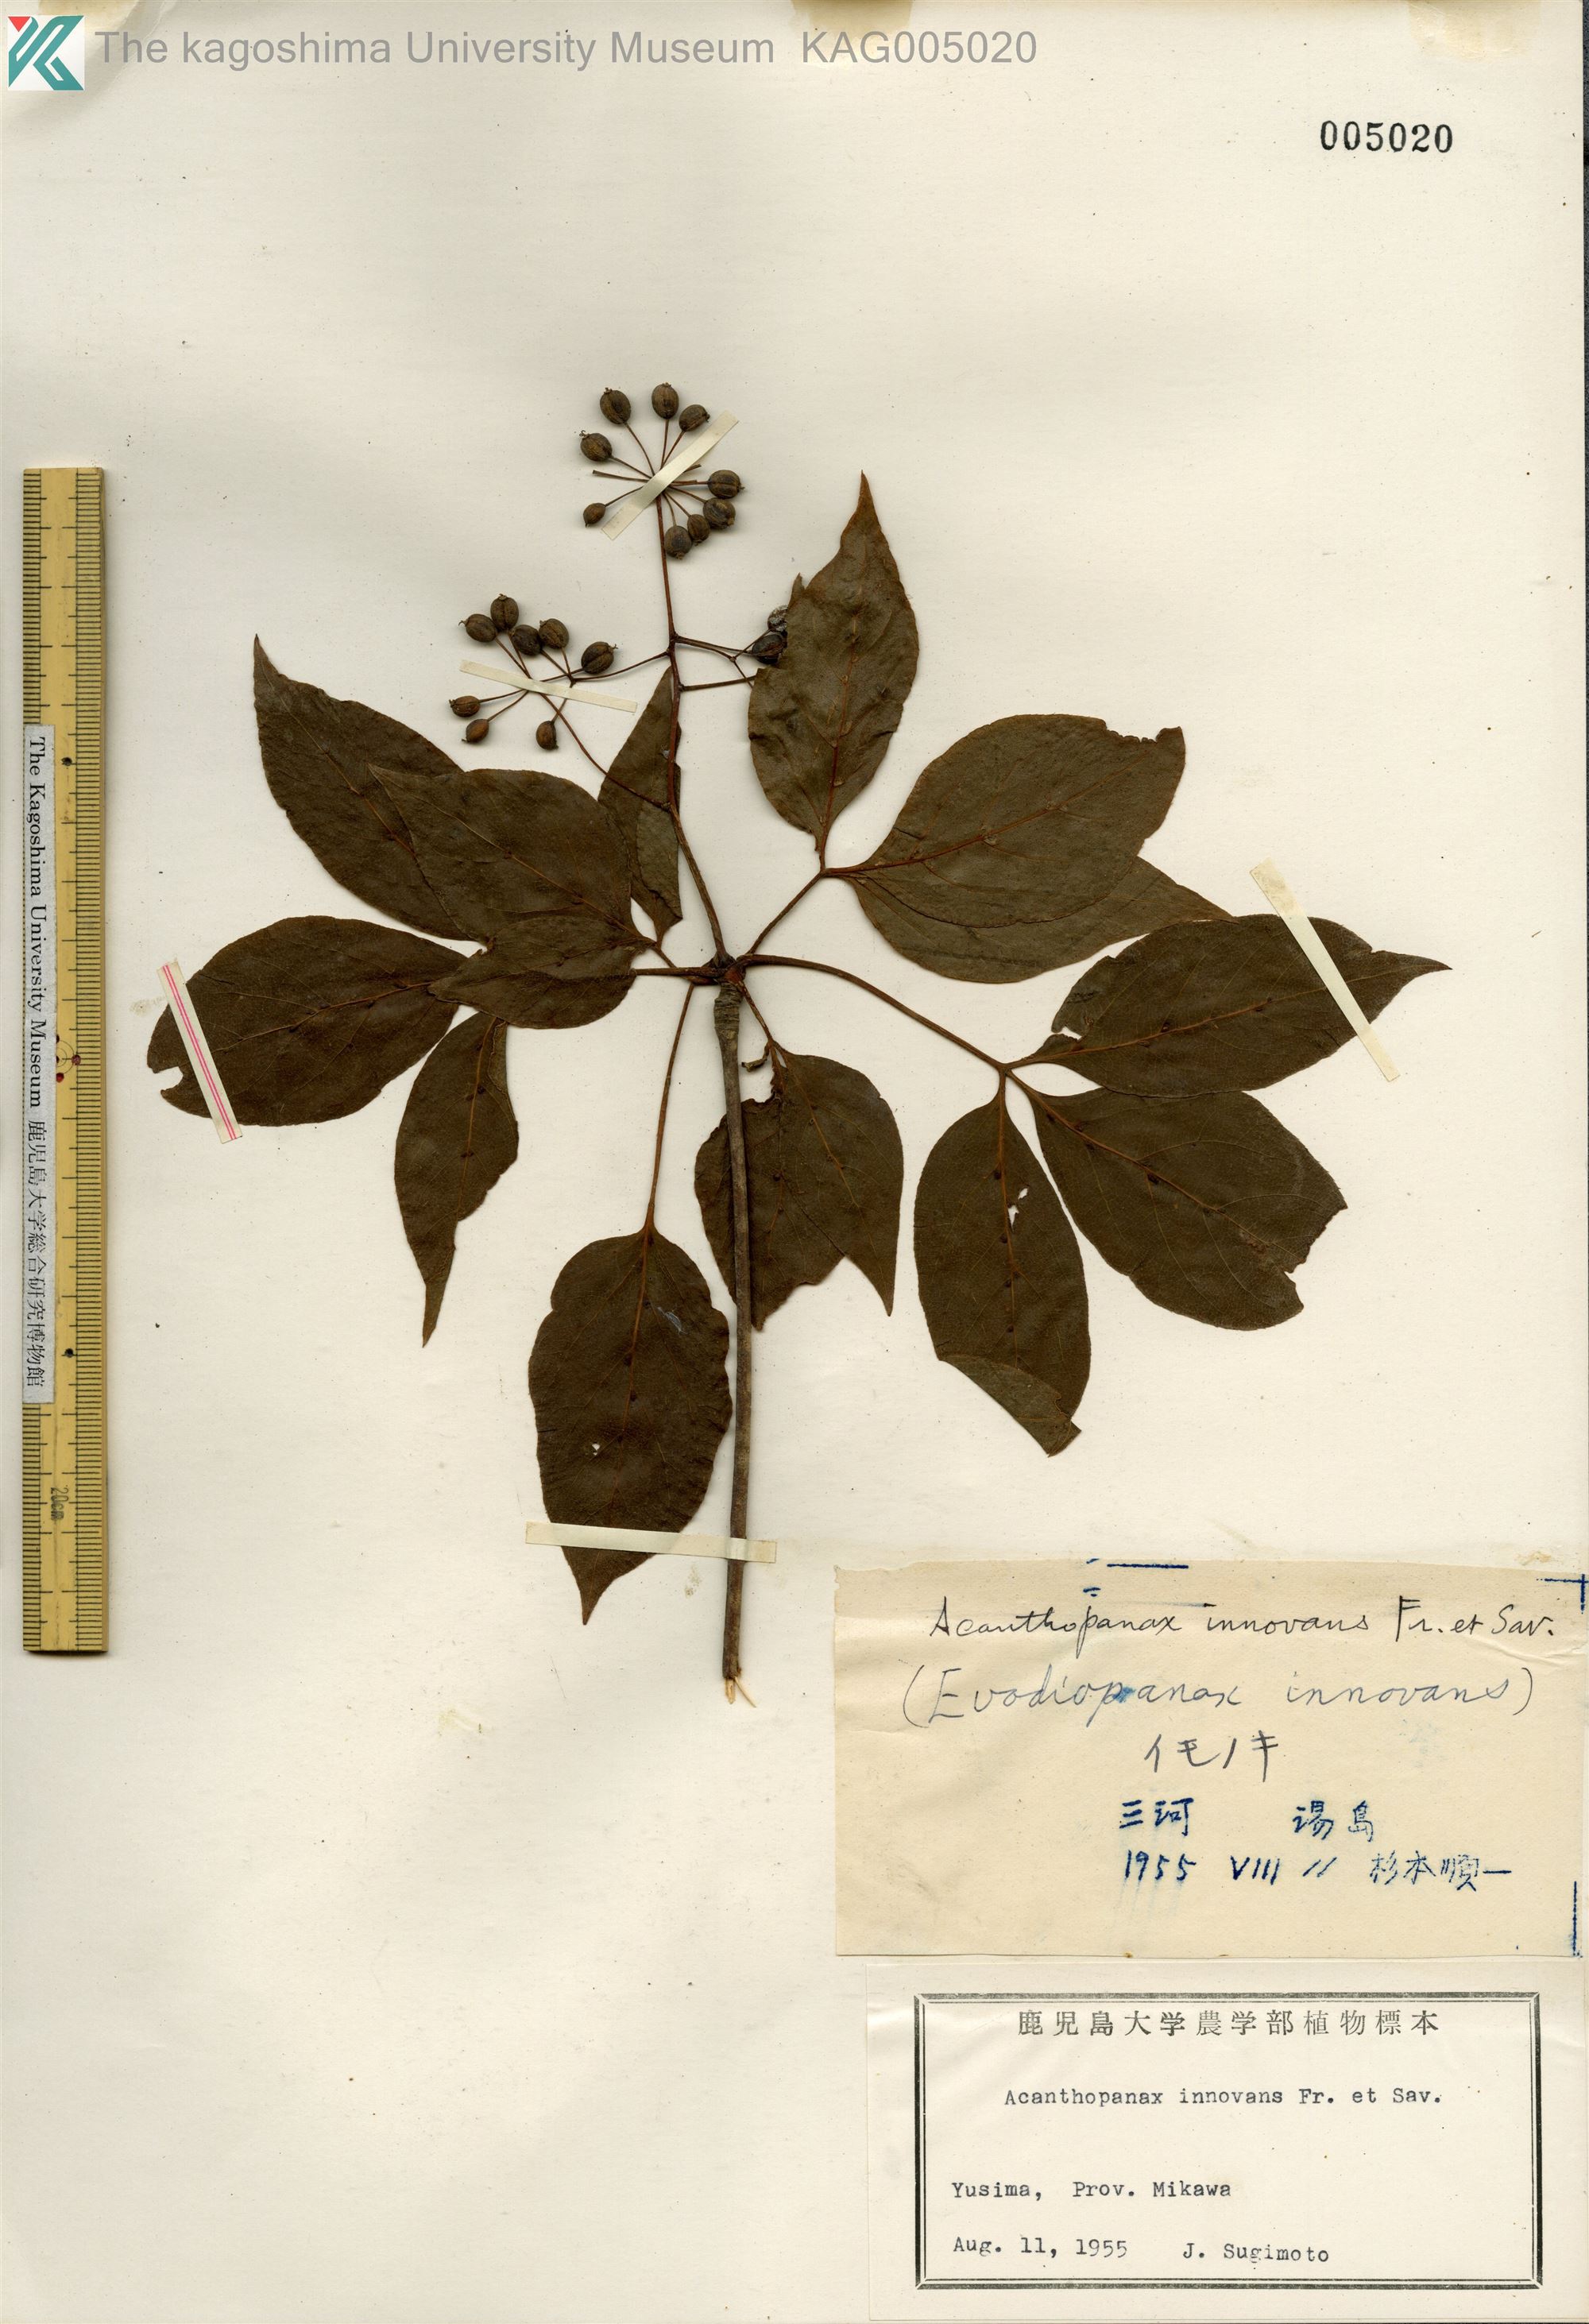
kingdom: Plantae
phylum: Tracheophyta
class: Magnoliopsida
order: Apiales
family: Araliaceae
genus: Fatsia
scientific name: Fatsia japonica
